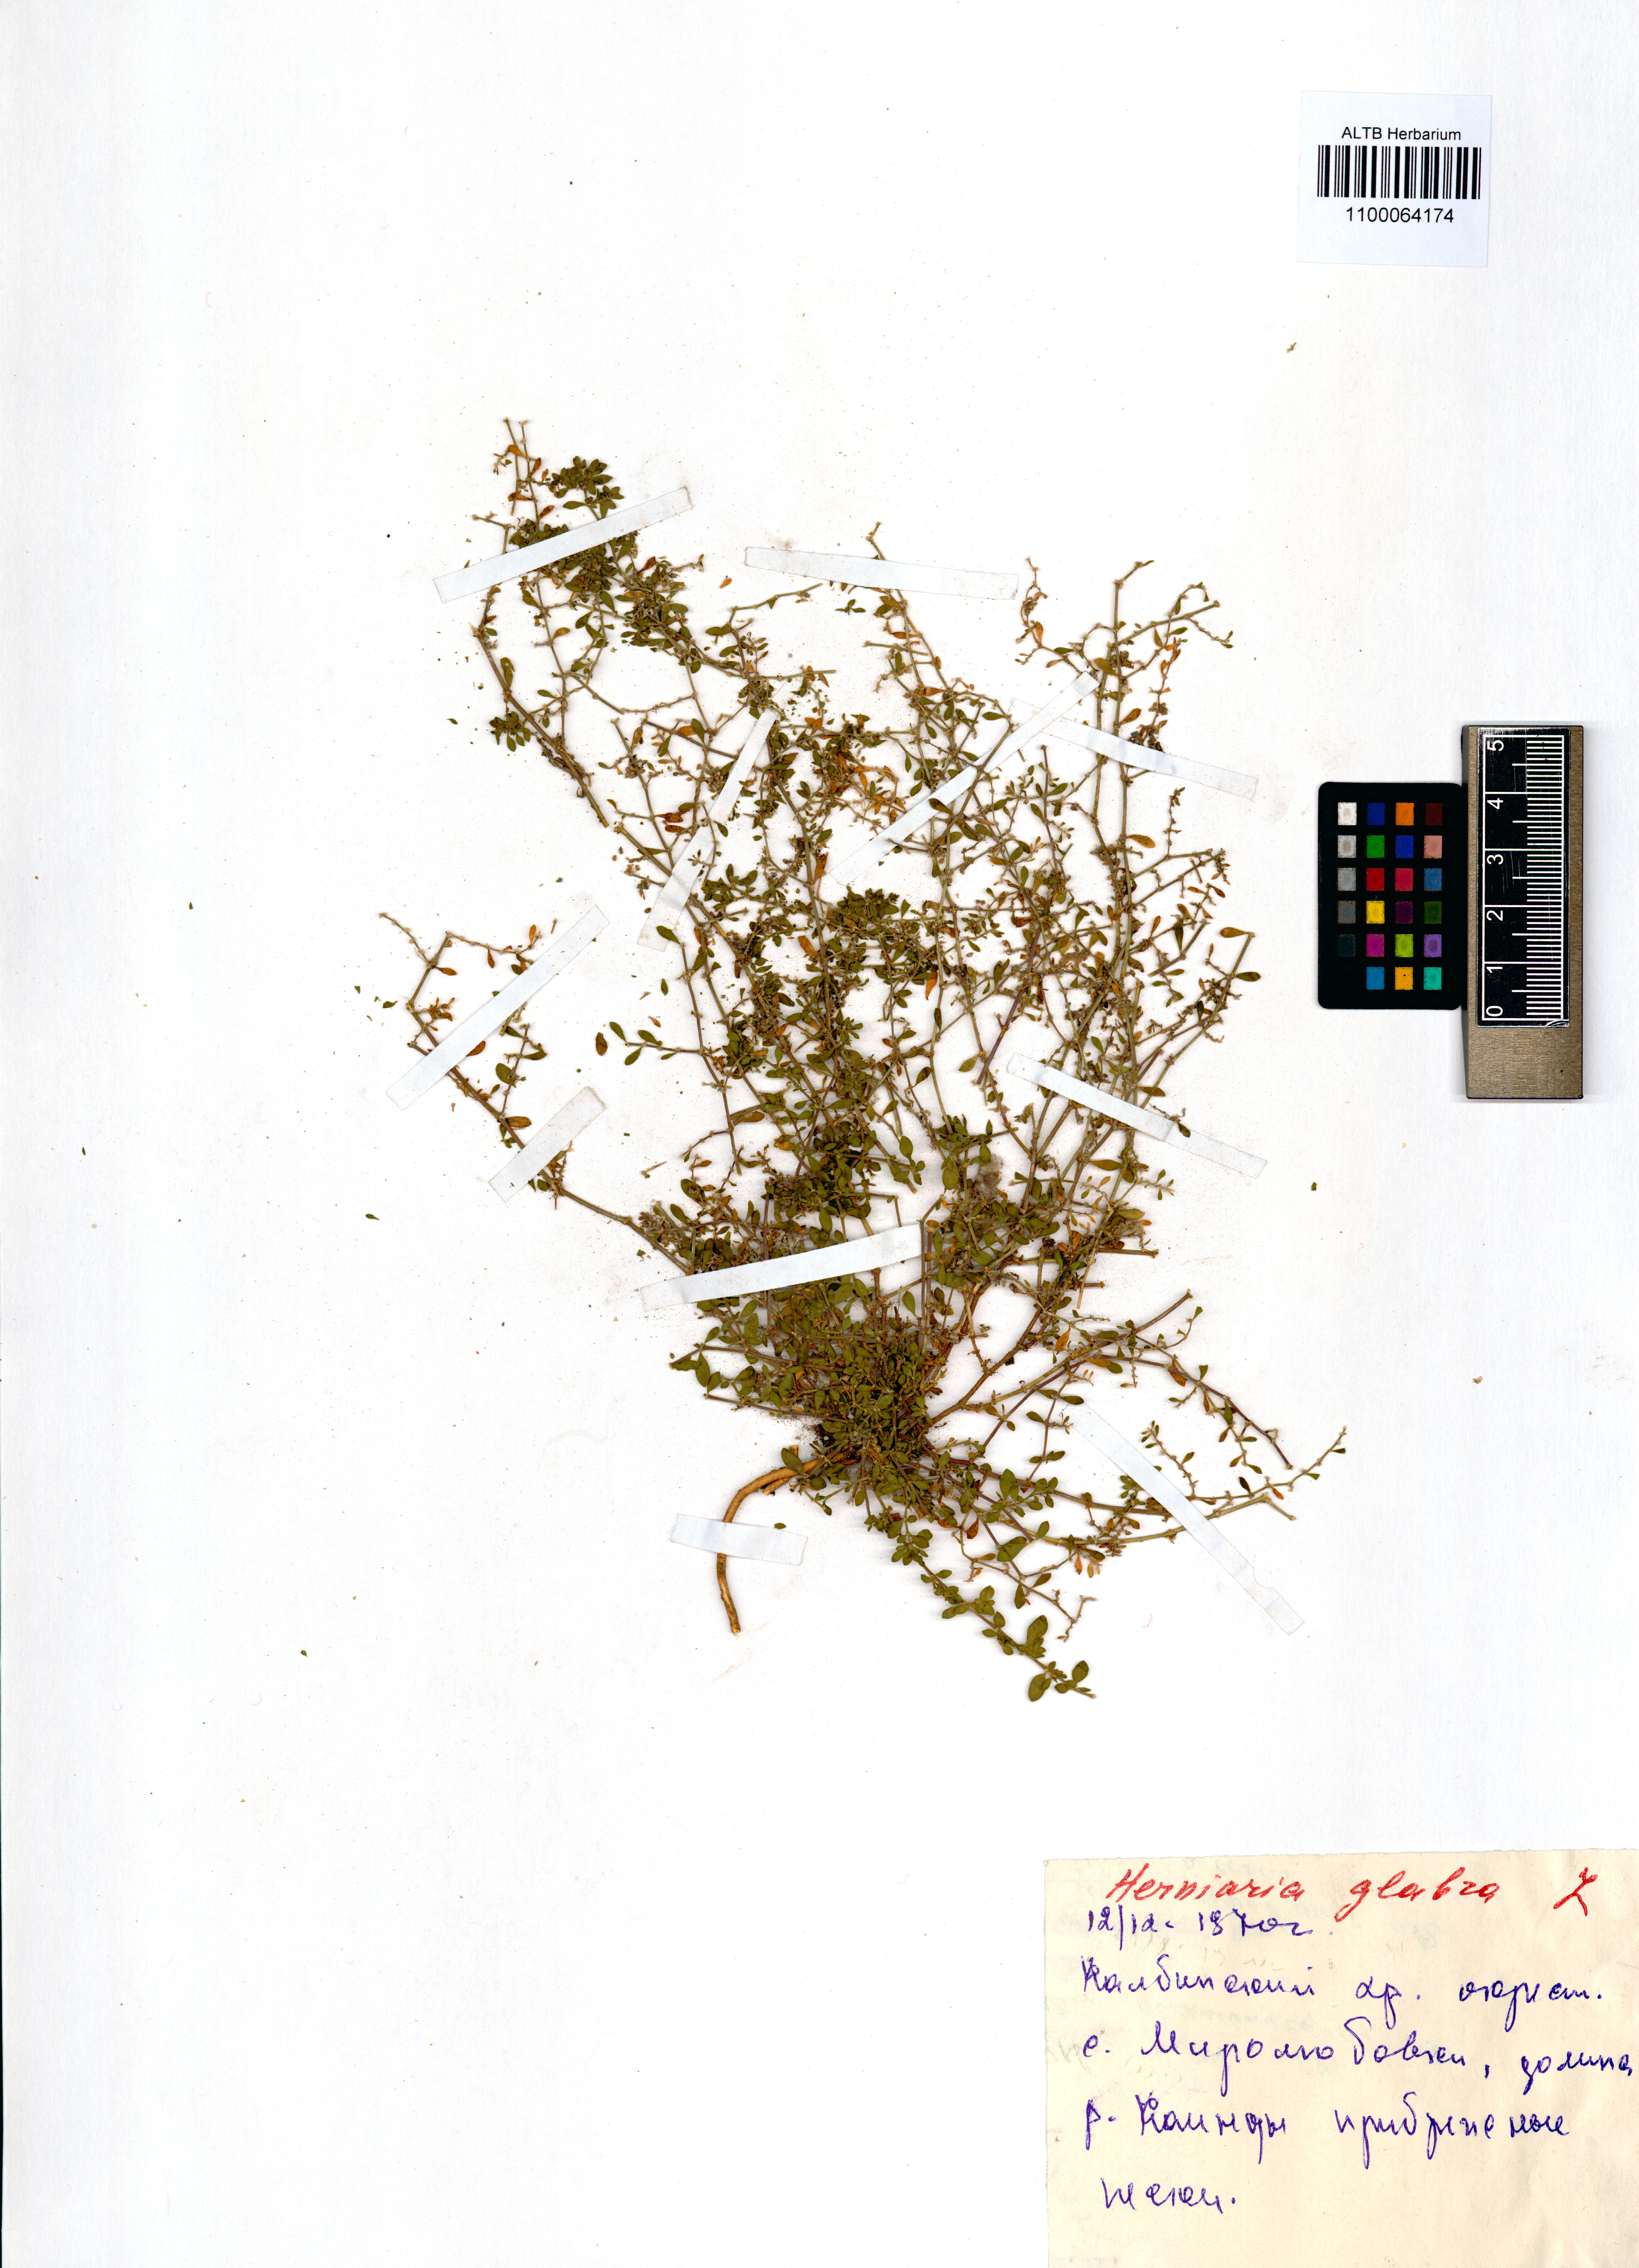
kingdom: Plantae
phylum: Tracheophyta
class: Magnoliopsida
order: Caryophyllales
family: Caryophyllaceae
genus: Herniaria
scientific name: Herniaria glabra
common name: Smooth rupturewort
